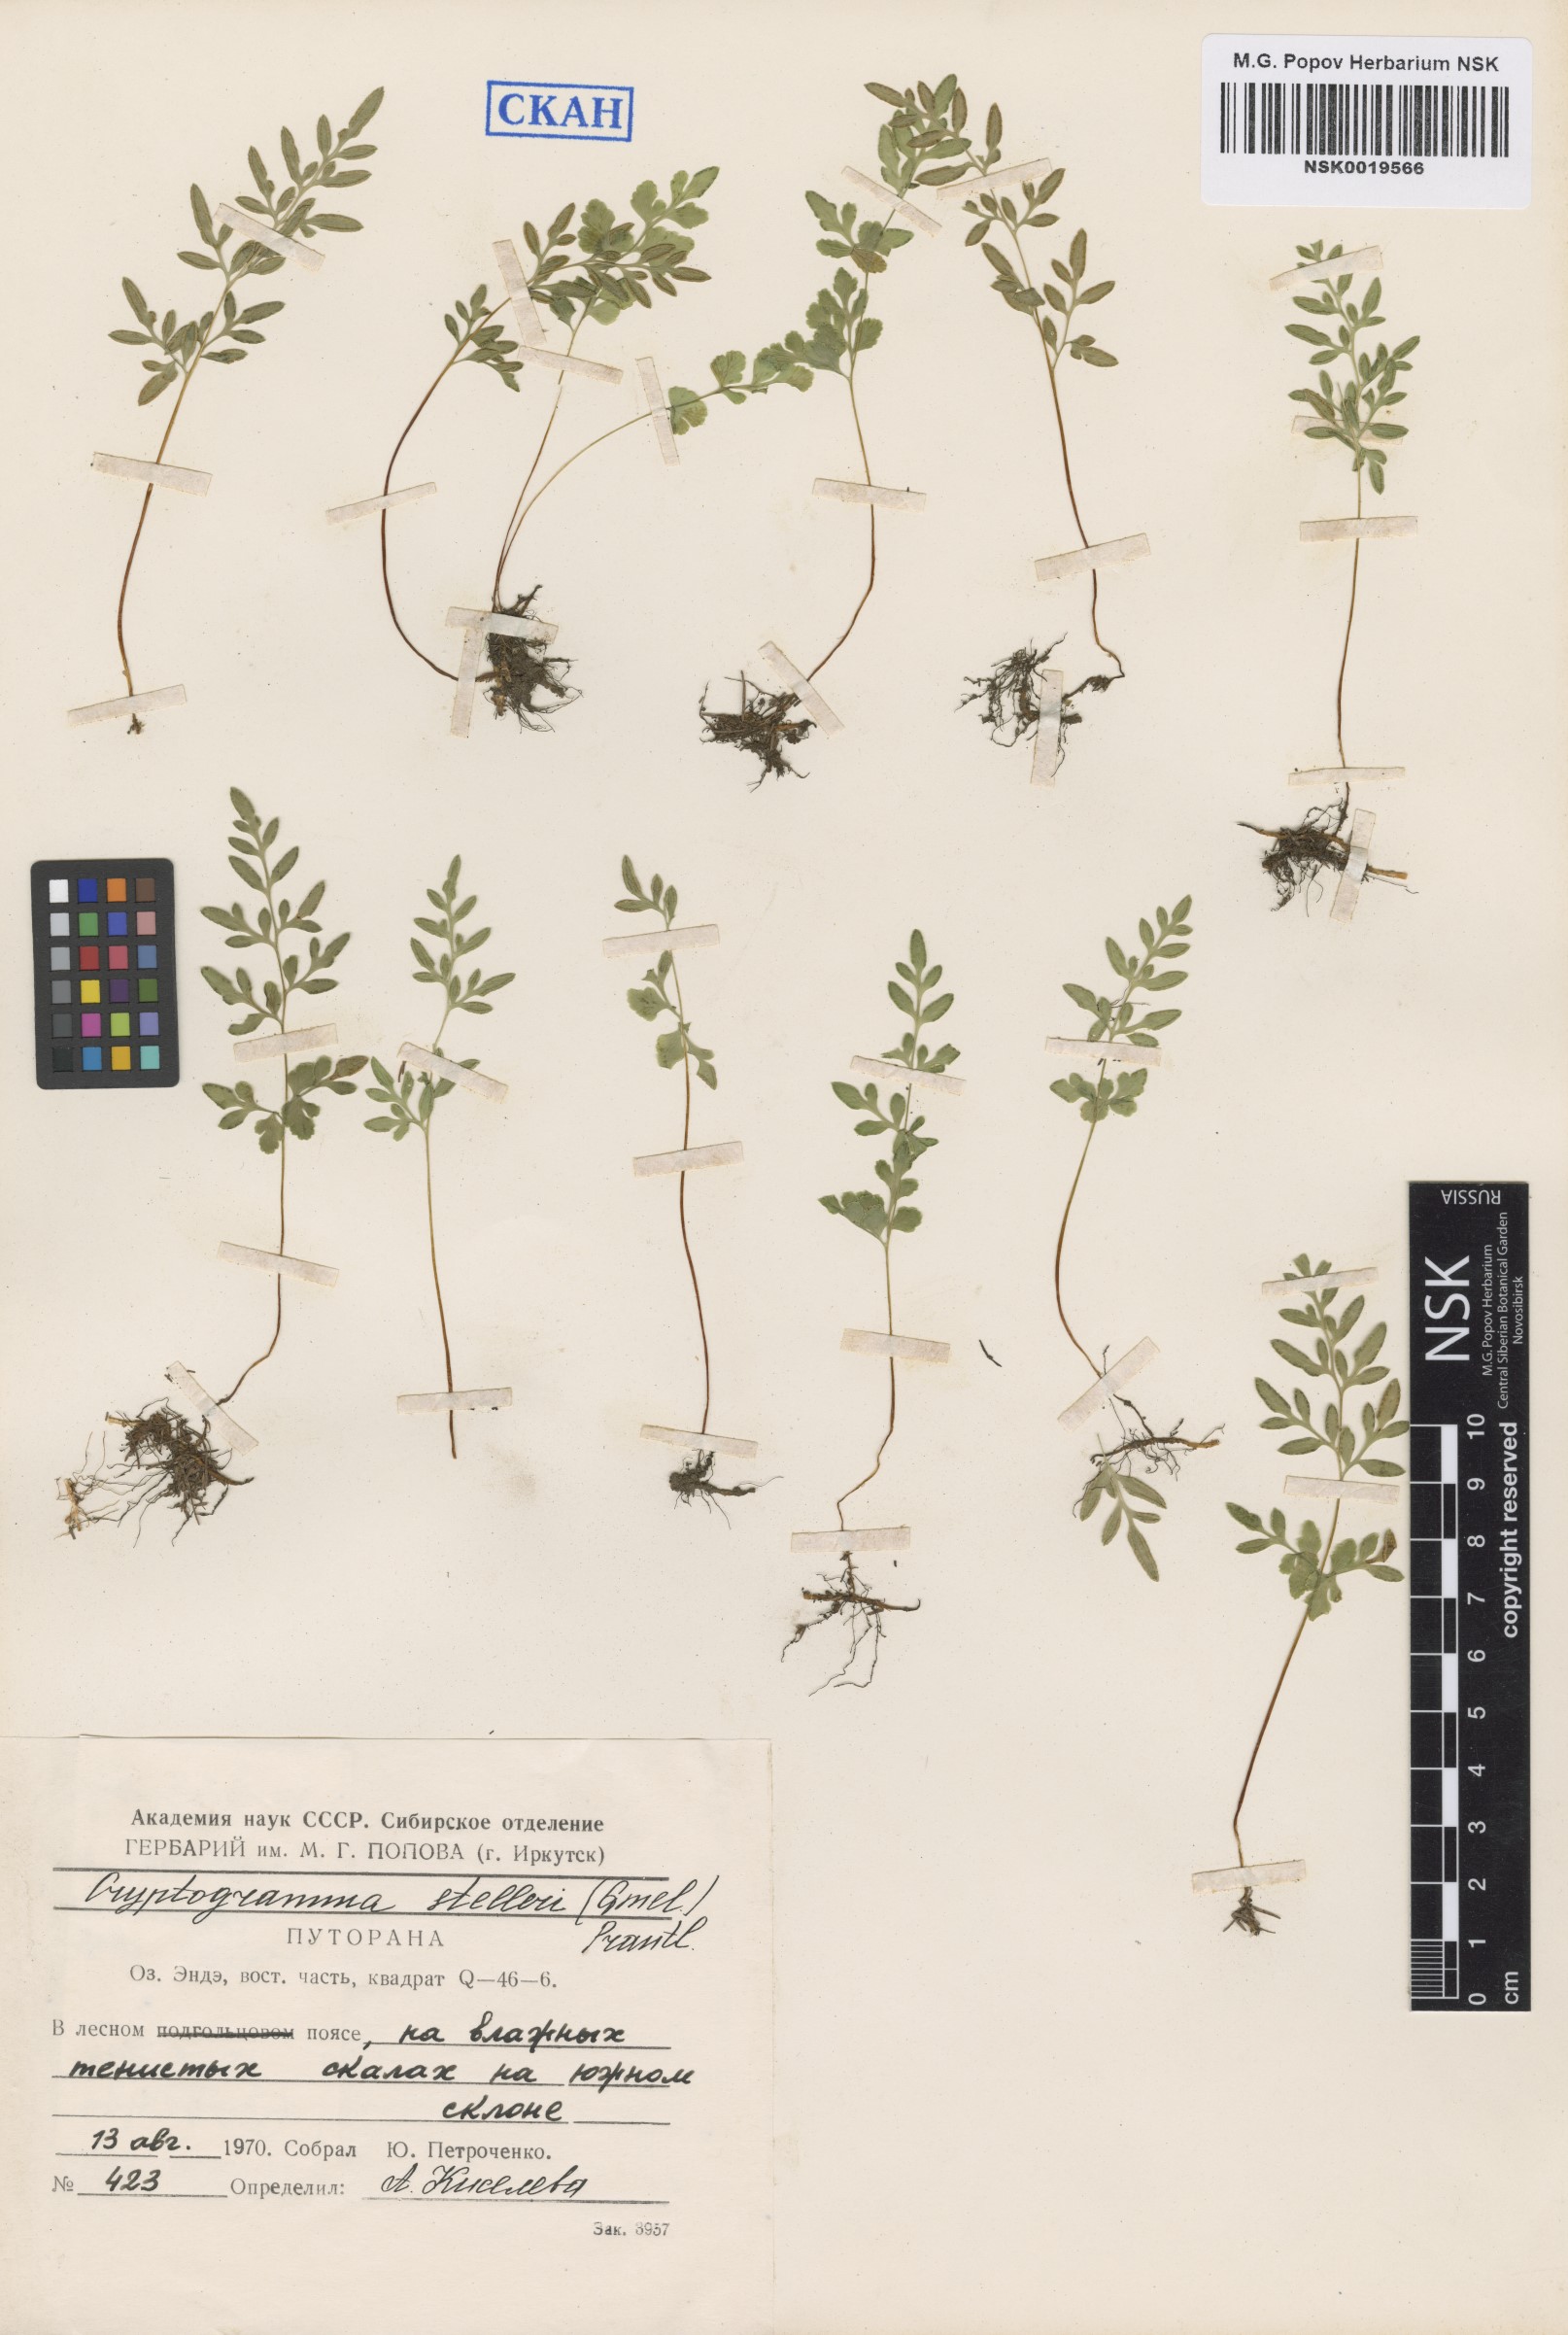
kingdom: Plantae
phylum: Tracheophyta
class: Polypodiopsida
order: Polypodiales
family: Pteridaceae
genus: Cryptogramma
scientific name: Cryptogramma stelleri
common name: Cliff-brake
